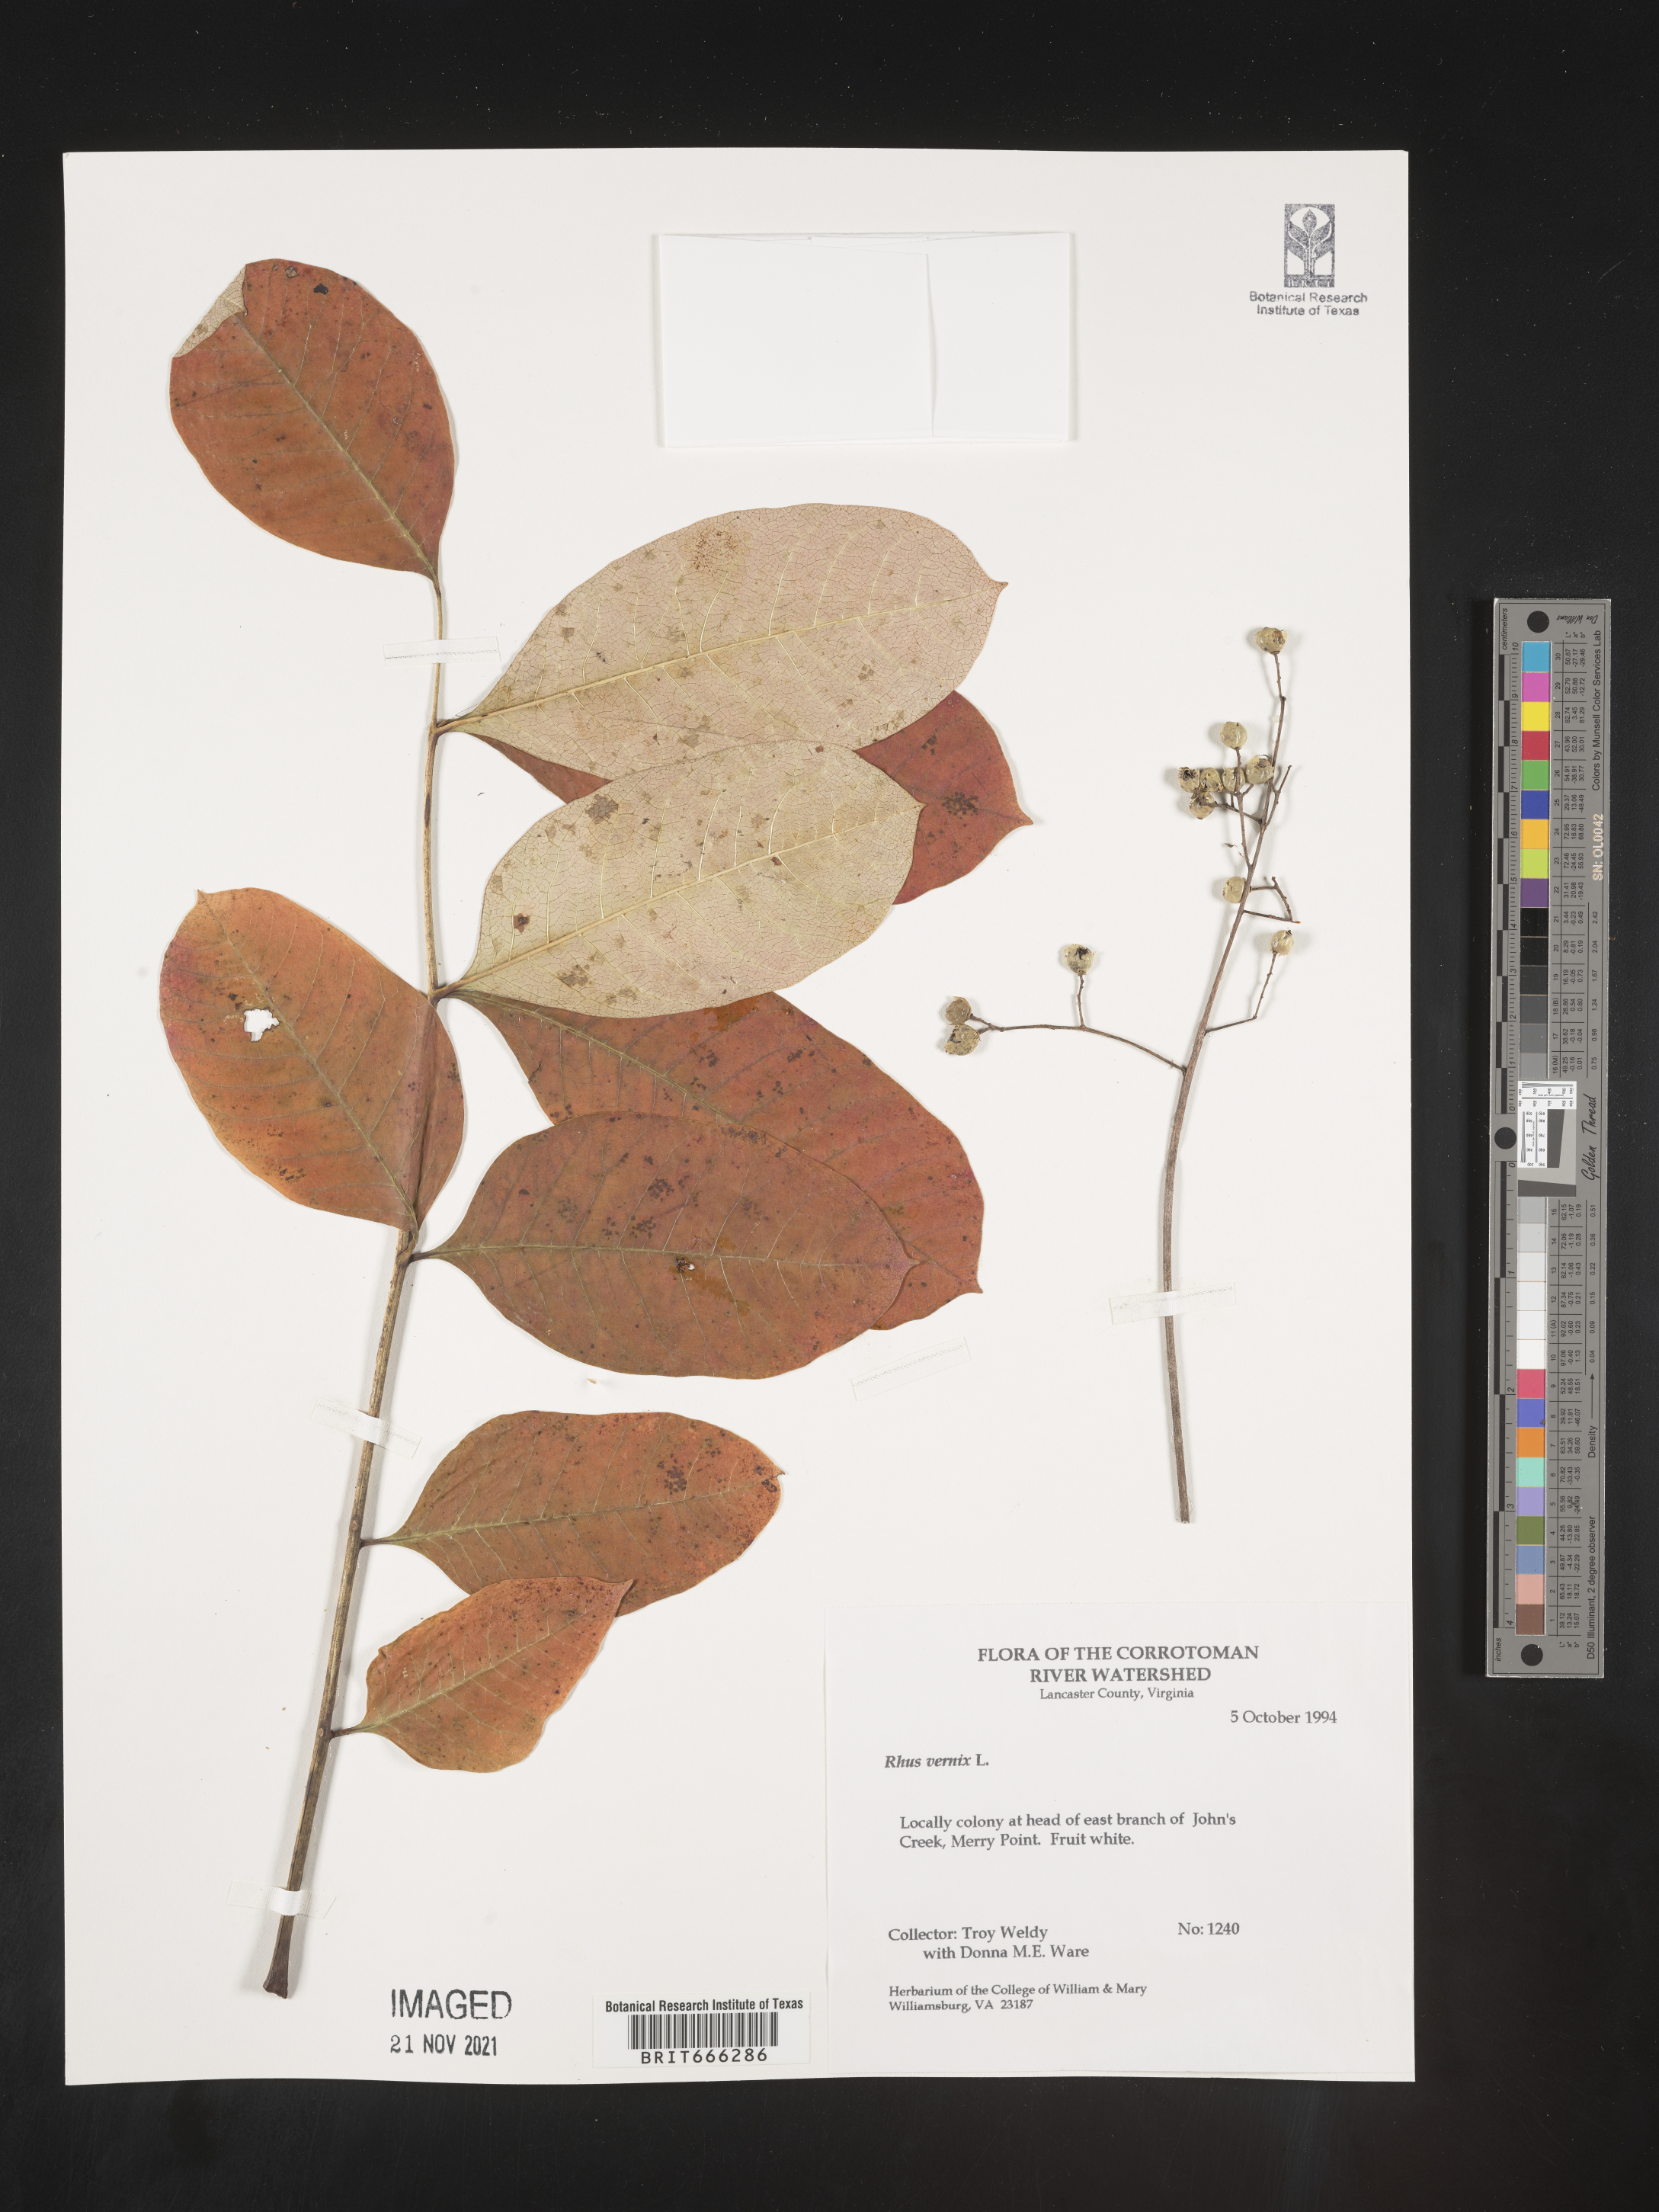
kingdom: Plantae
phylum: Tracheophyta
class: Magnoliopsida
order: Sapindales
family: Anacardiaceae
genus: Toxicodendron
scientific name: Toxicodendron vernix
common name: Poison sumac
